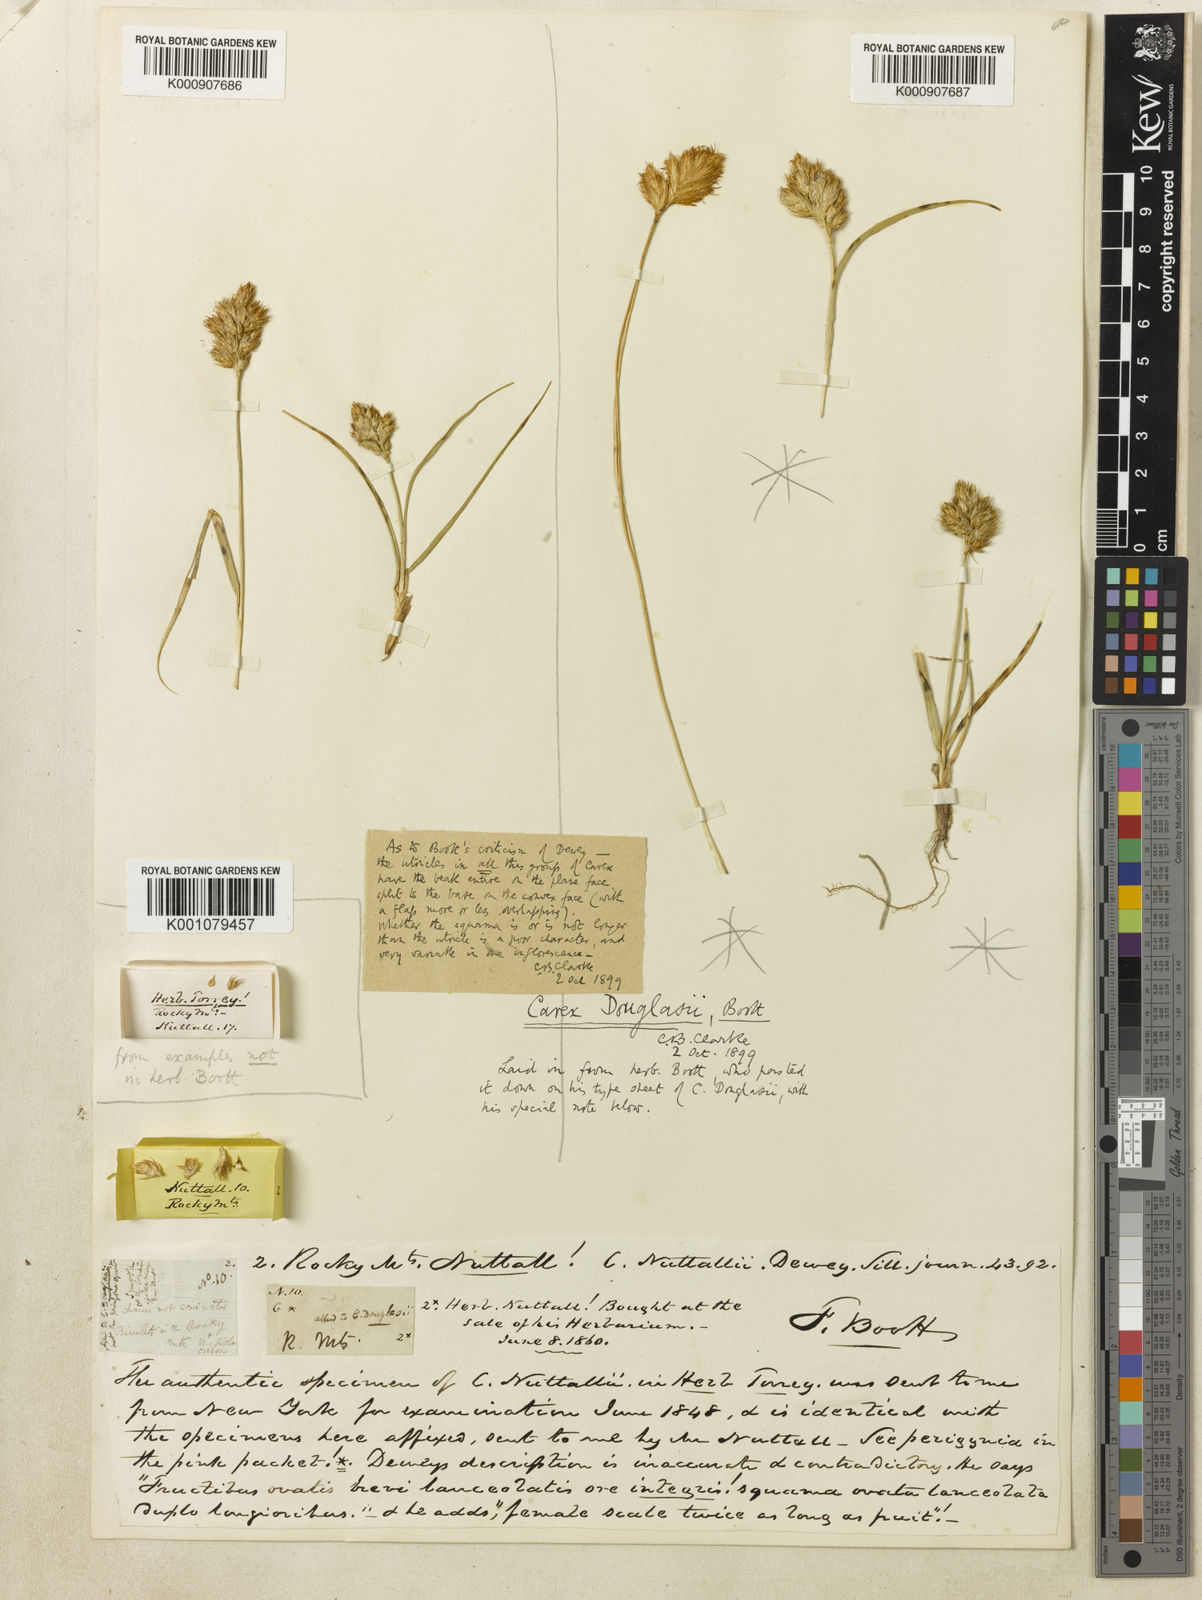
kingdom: Plantae
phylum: Tracheophyta
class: Liliopsida
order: Poales
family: Cyperaceae
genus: Carex
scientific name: Carex douglasii
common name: Douglas' sedge
